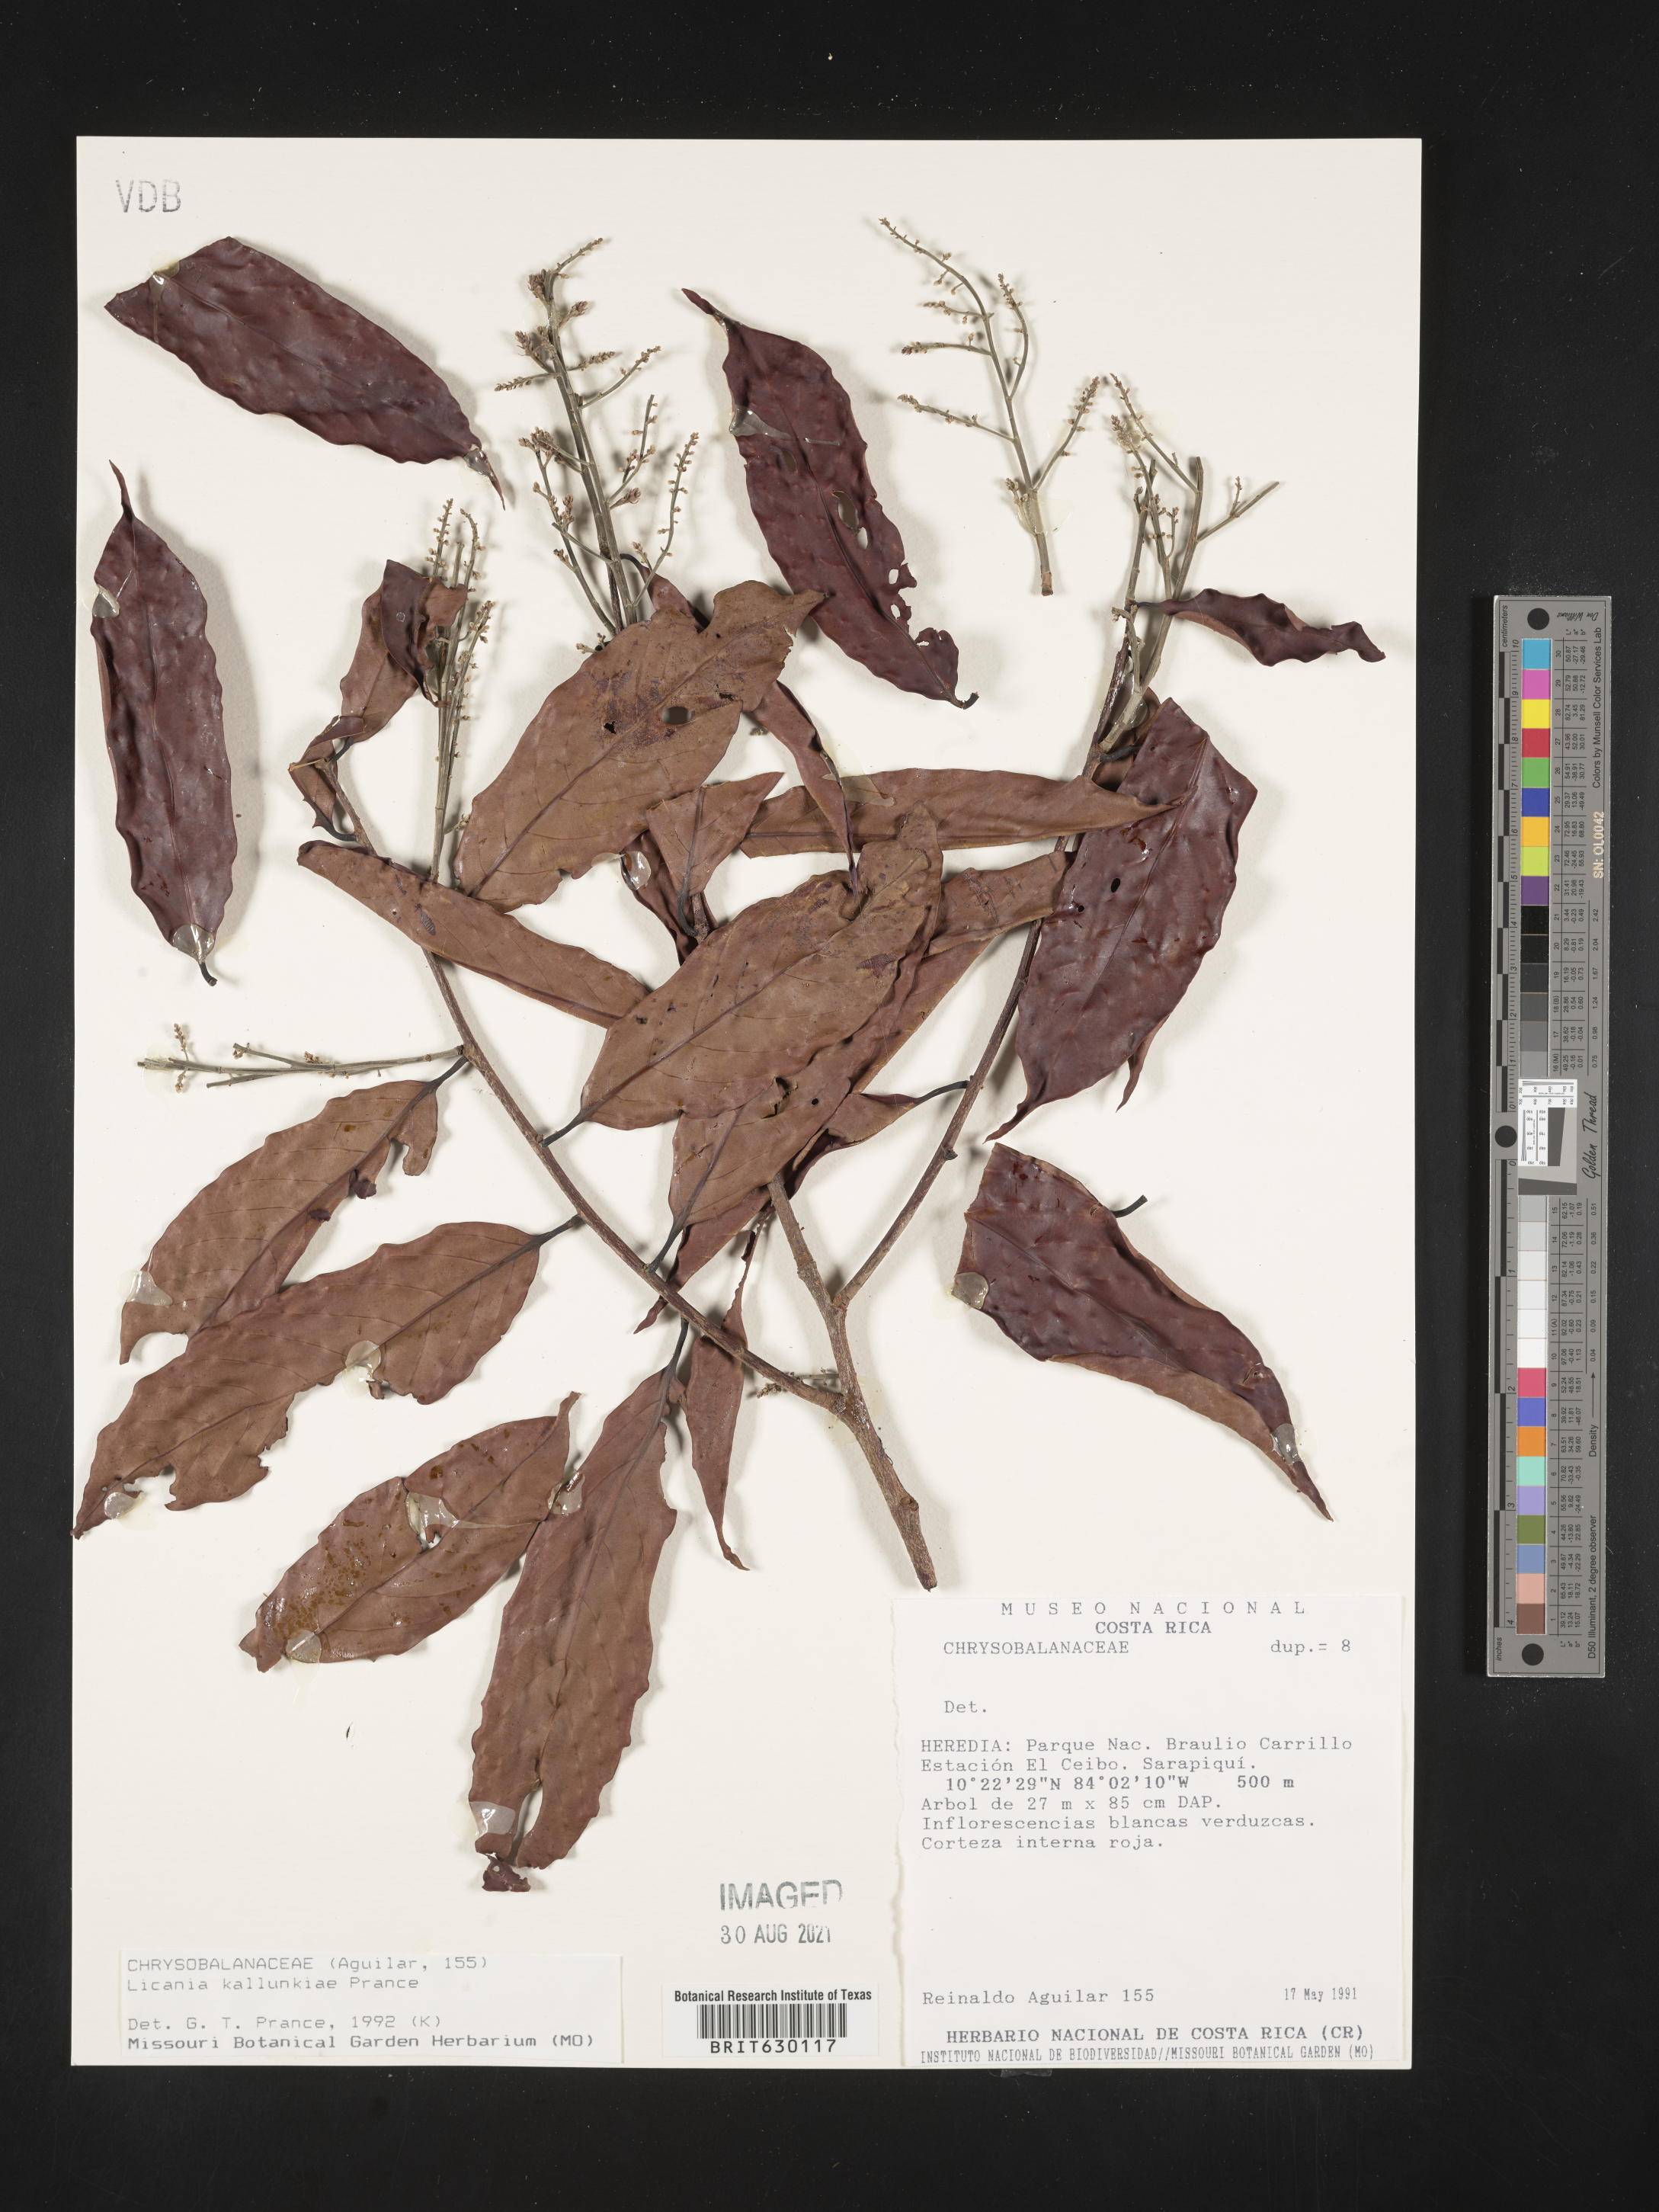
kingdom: Plantae
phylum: Tracheophyta
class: Magnoliopsida
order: Malpighiales
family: Chrysobalanaceae
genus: Moquilea
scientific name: Moquilea kallunkiae
